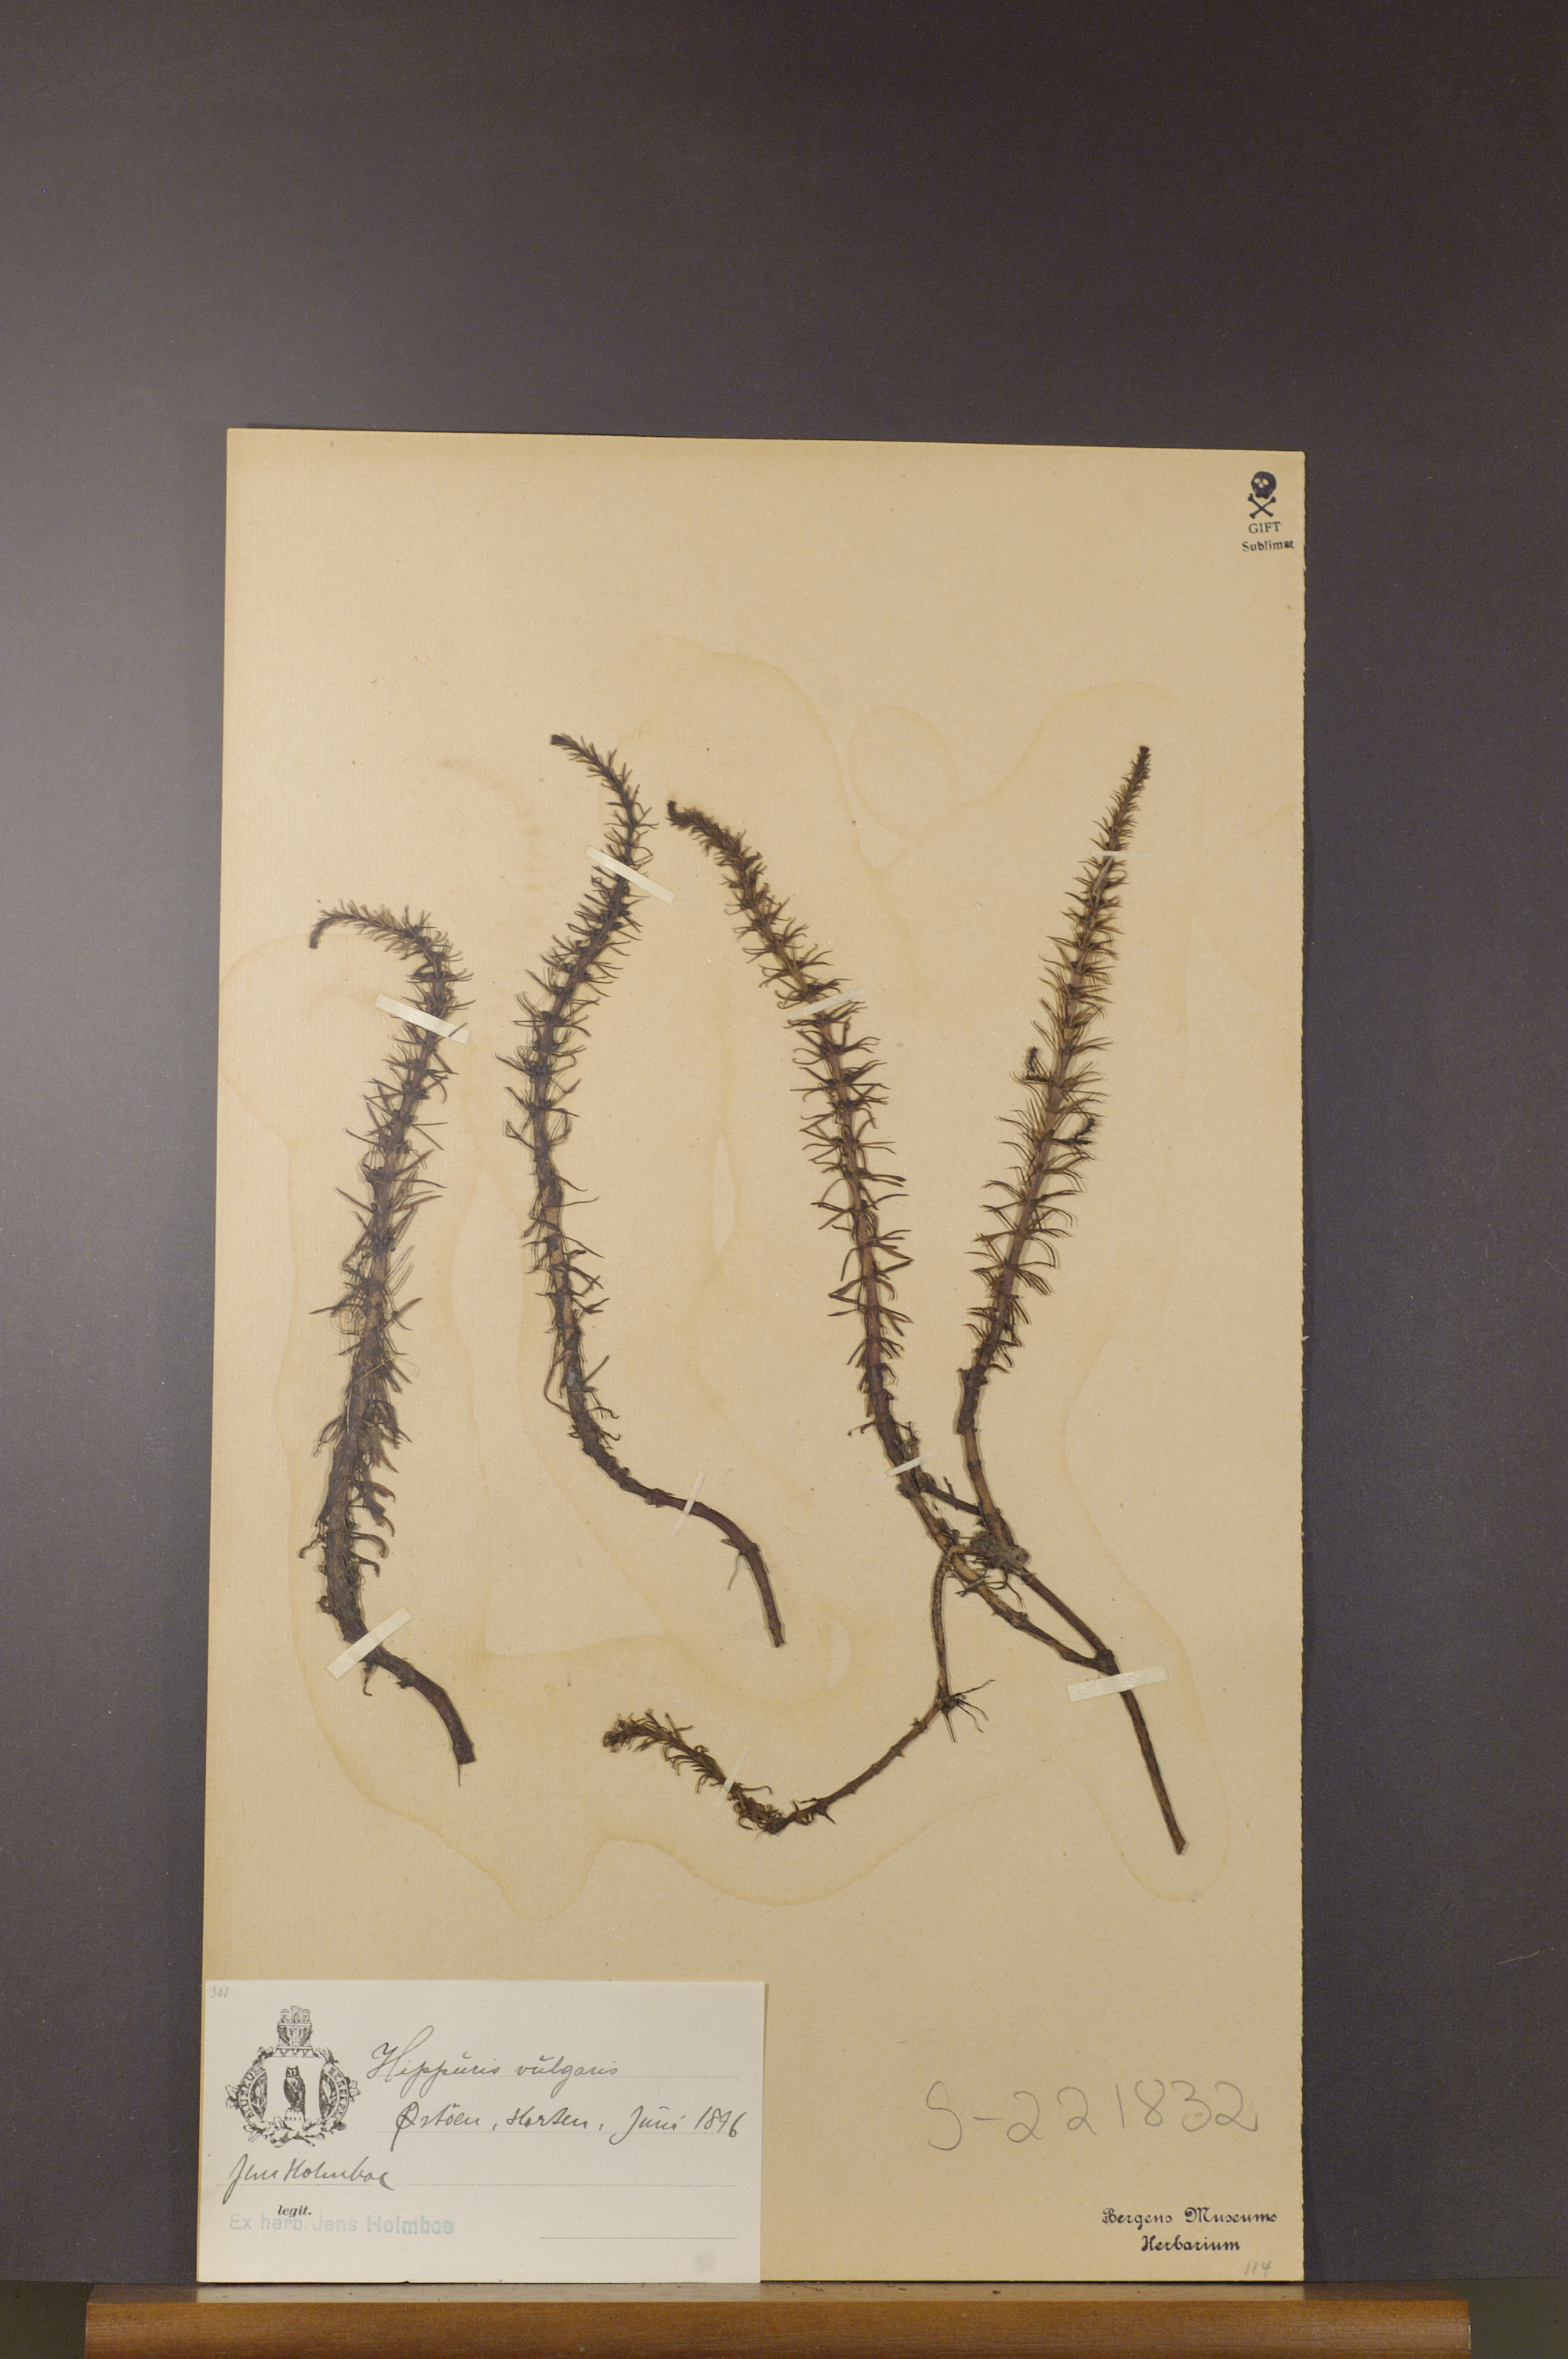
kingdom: Plantae
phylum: Tracheophyta
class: Magnoliopsida
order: Lamiales
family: Plantaginaceae
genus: Hippuris
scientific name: Hippuris vulgaris
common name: Mare's-tail
